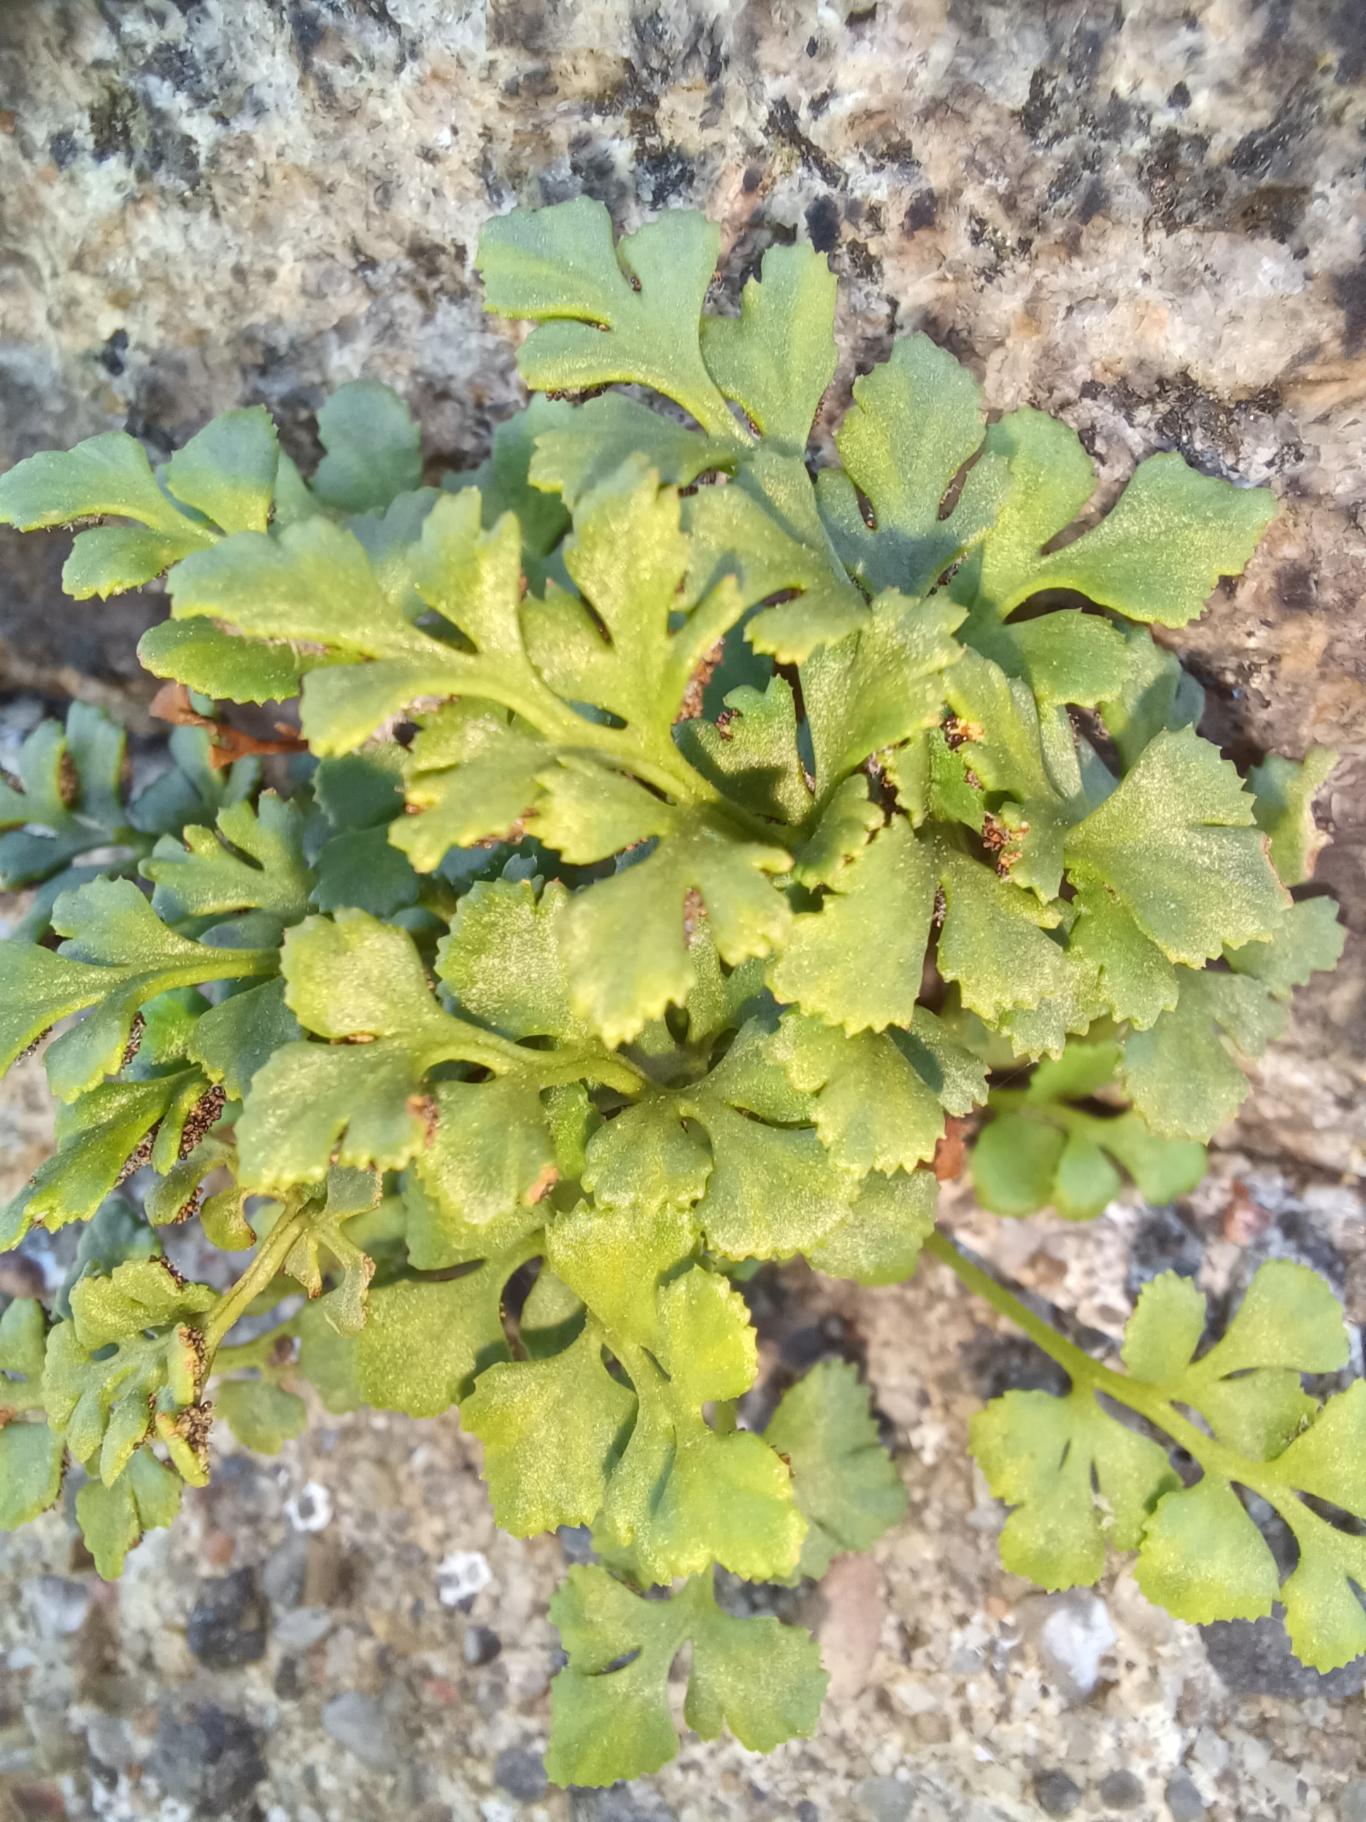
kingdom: Plantae
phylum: Tracheophyta
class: Polypodiopsida
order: Polypodiales
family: Aspleniaceae
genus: Asplenium
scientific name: Asplenium ruta-muraria
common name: Murrude
